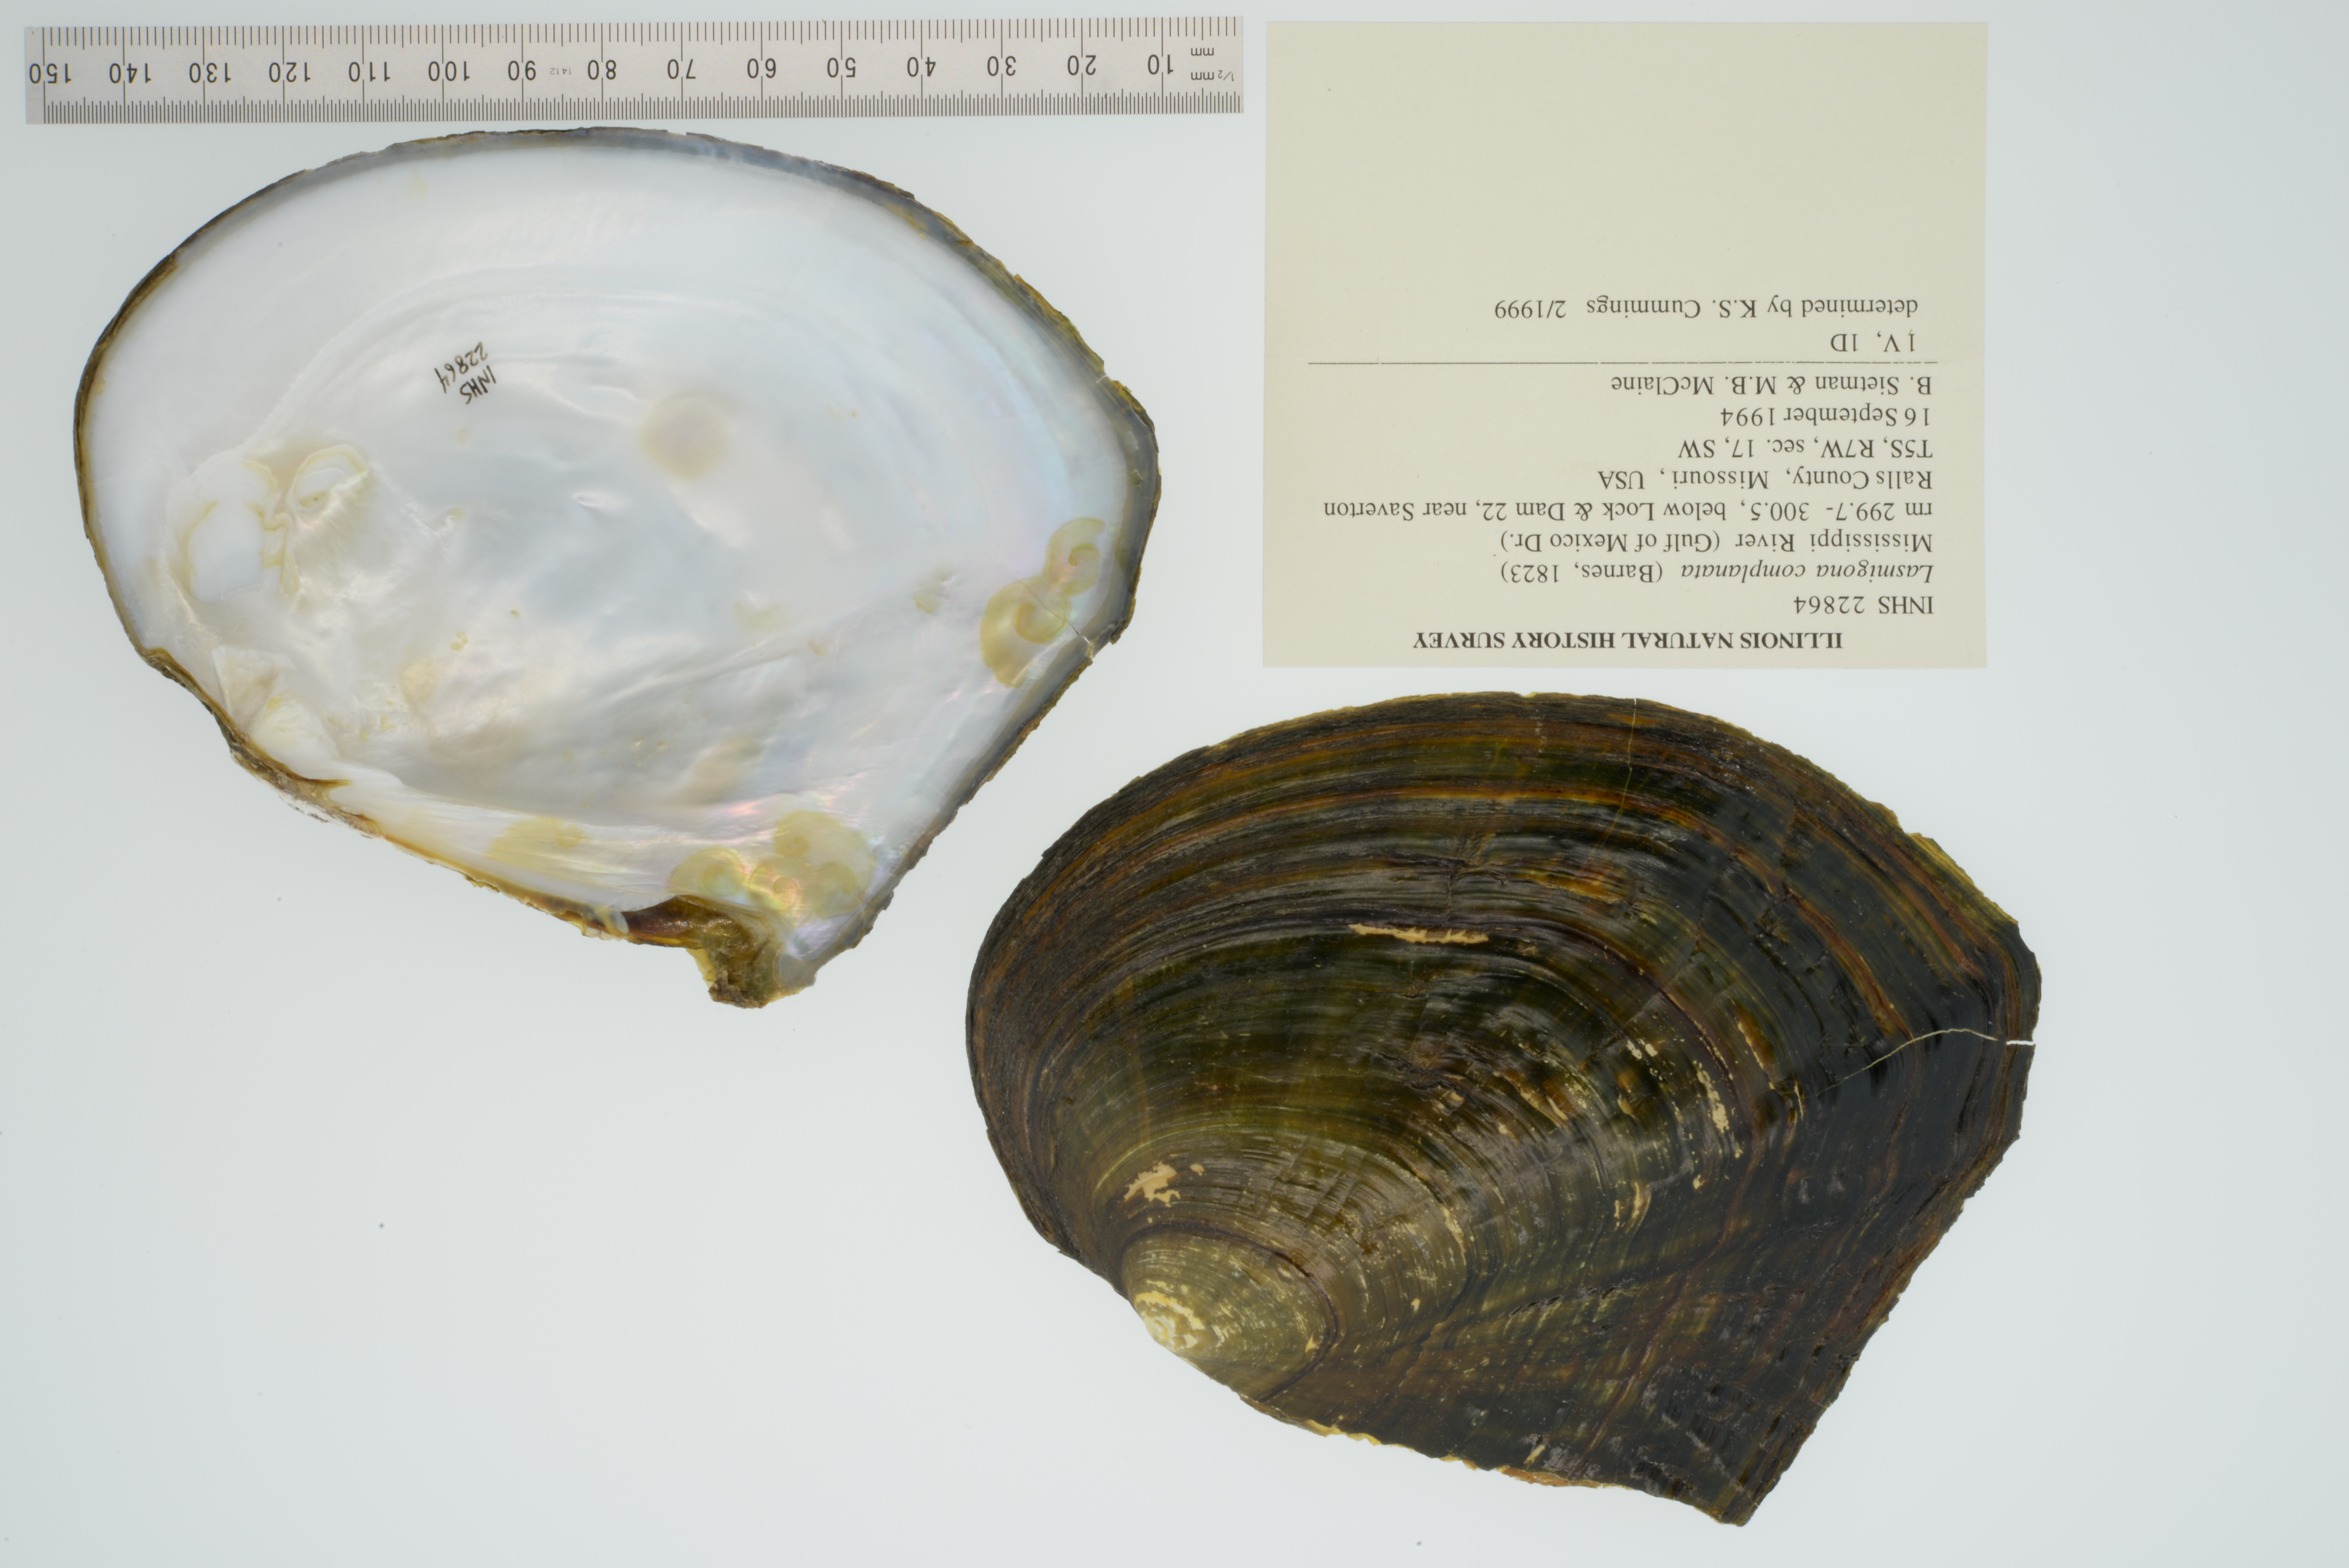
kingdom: Animalia
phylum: Mollusca
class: Bivalvia
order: Unionida
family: Unionidae
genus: Lasmigona
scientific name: Lasmigona complanata
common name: White heelsplitter
